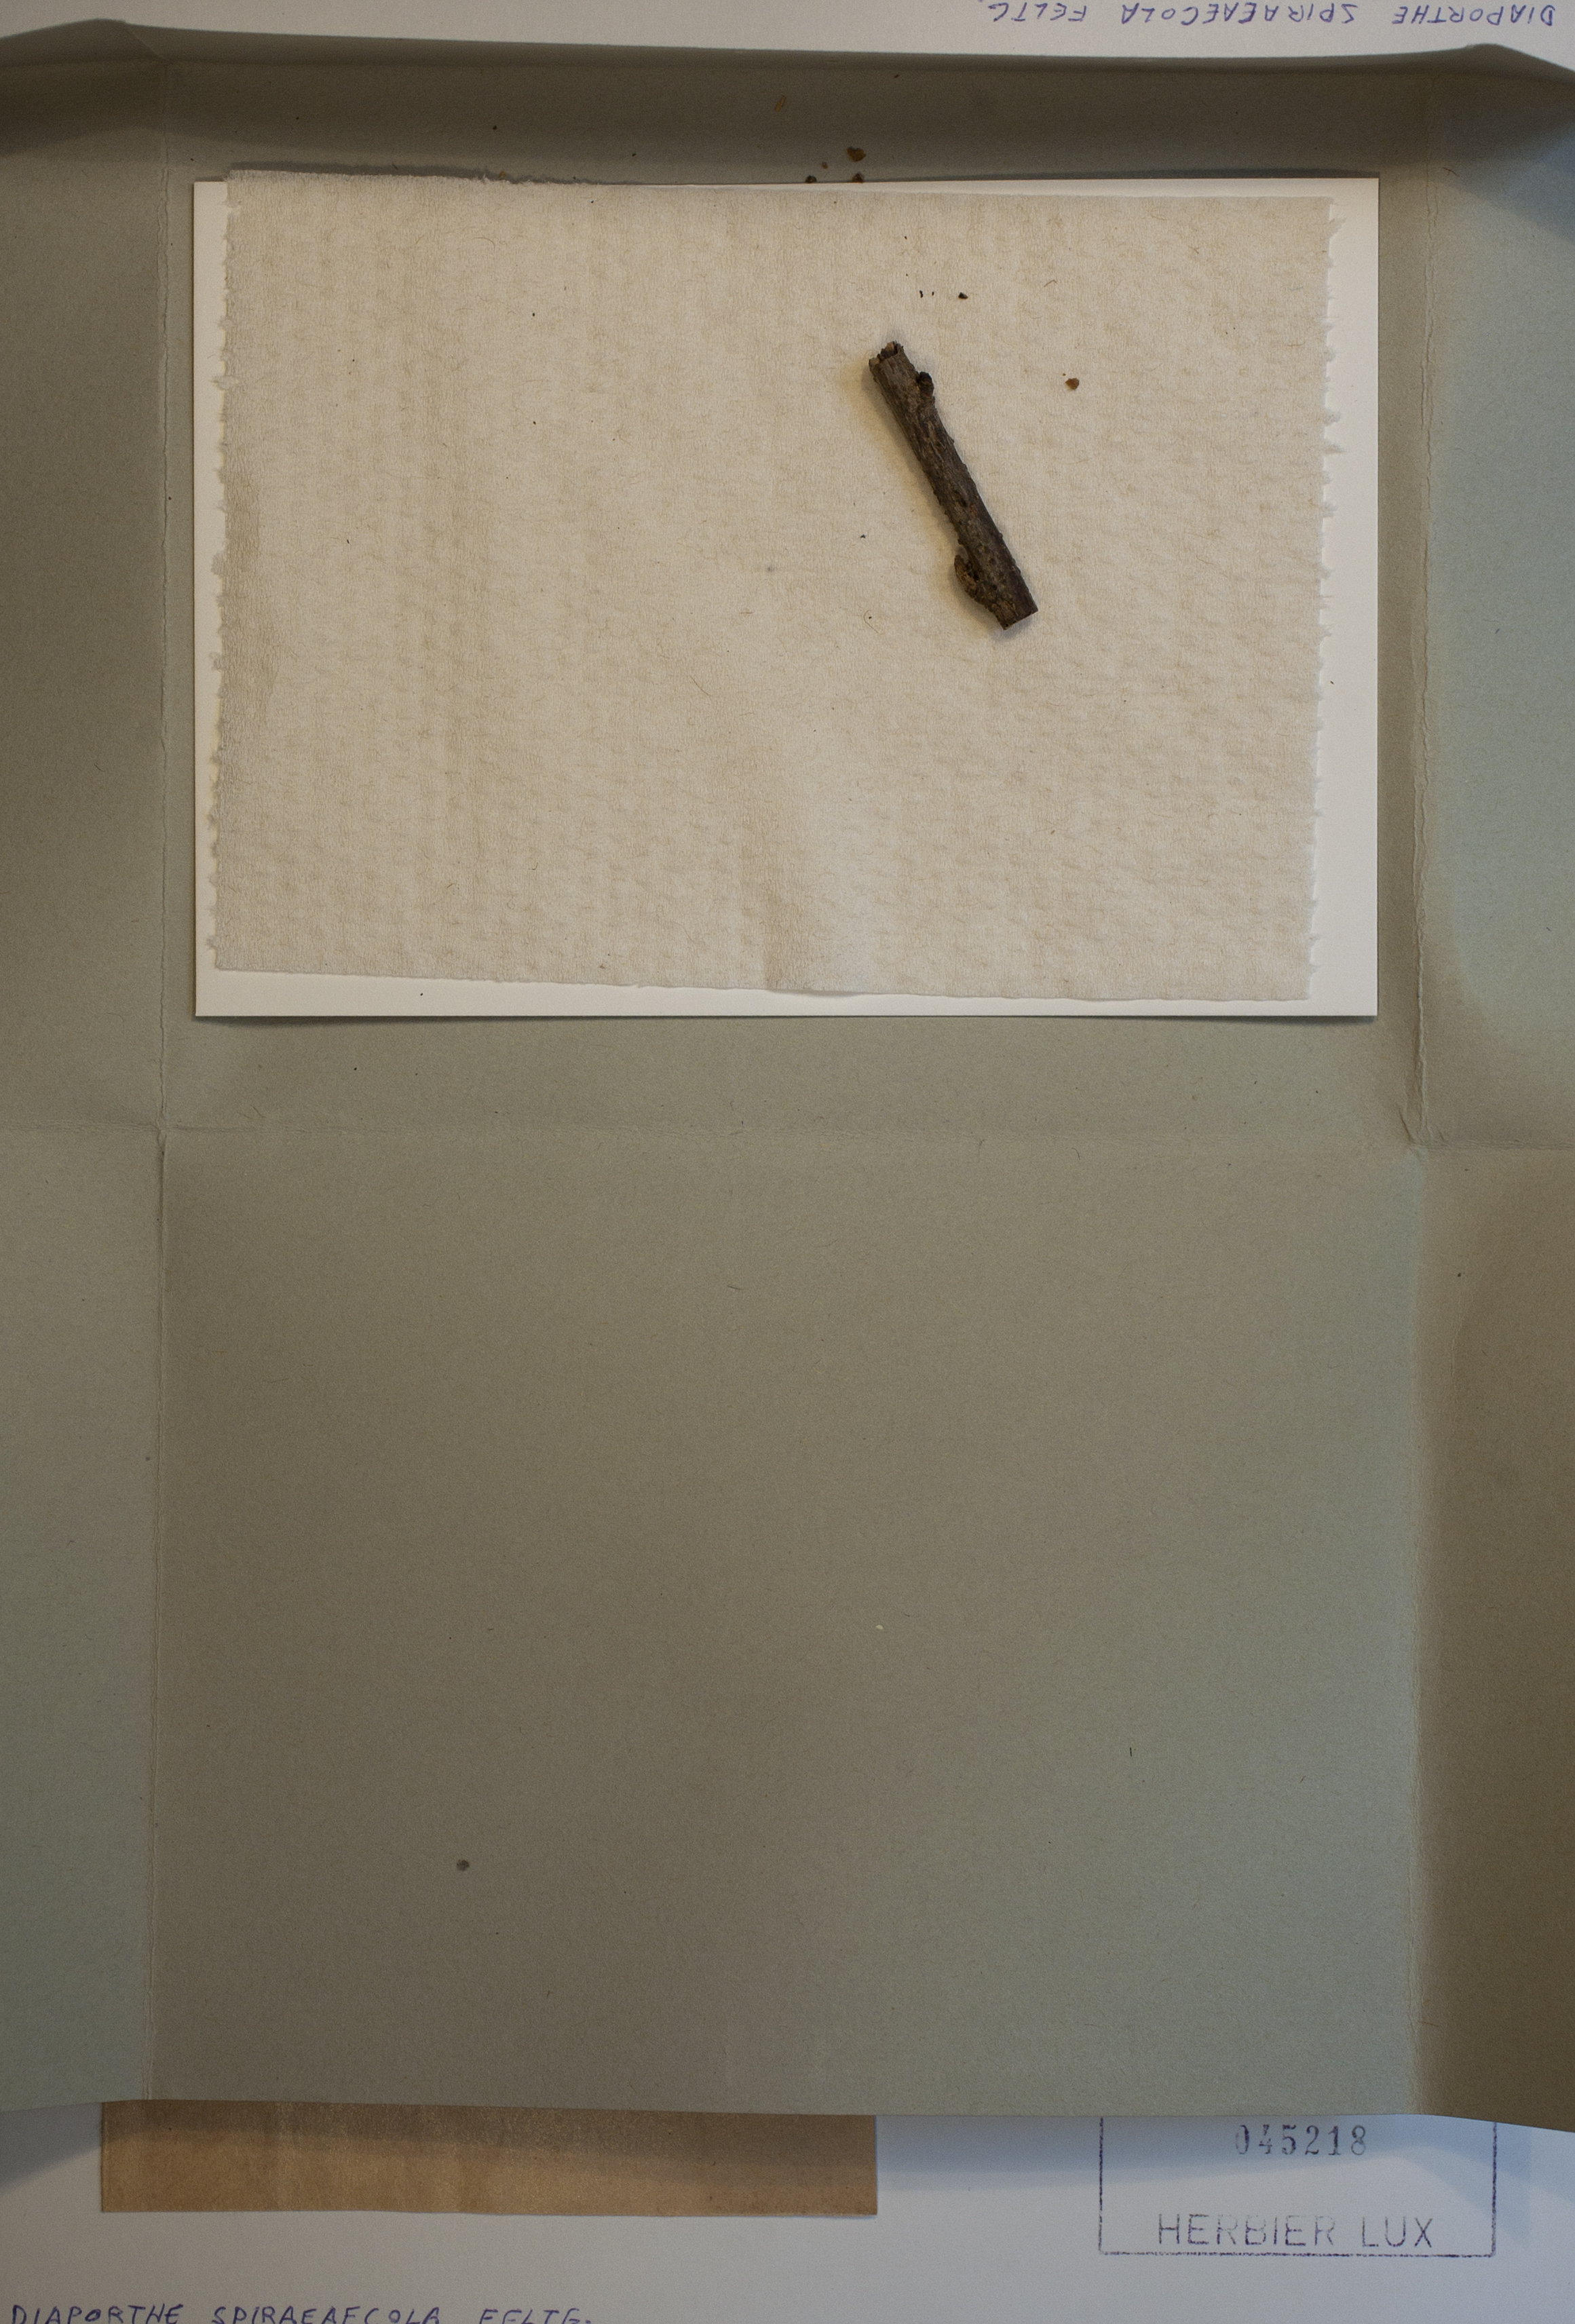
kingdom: Fungi
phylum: Ascomycota
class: Sordariomycetes
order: Diaporthales
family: Diaporthaceae
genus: Diaporthe
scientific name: Diaporthe spiraeicola
